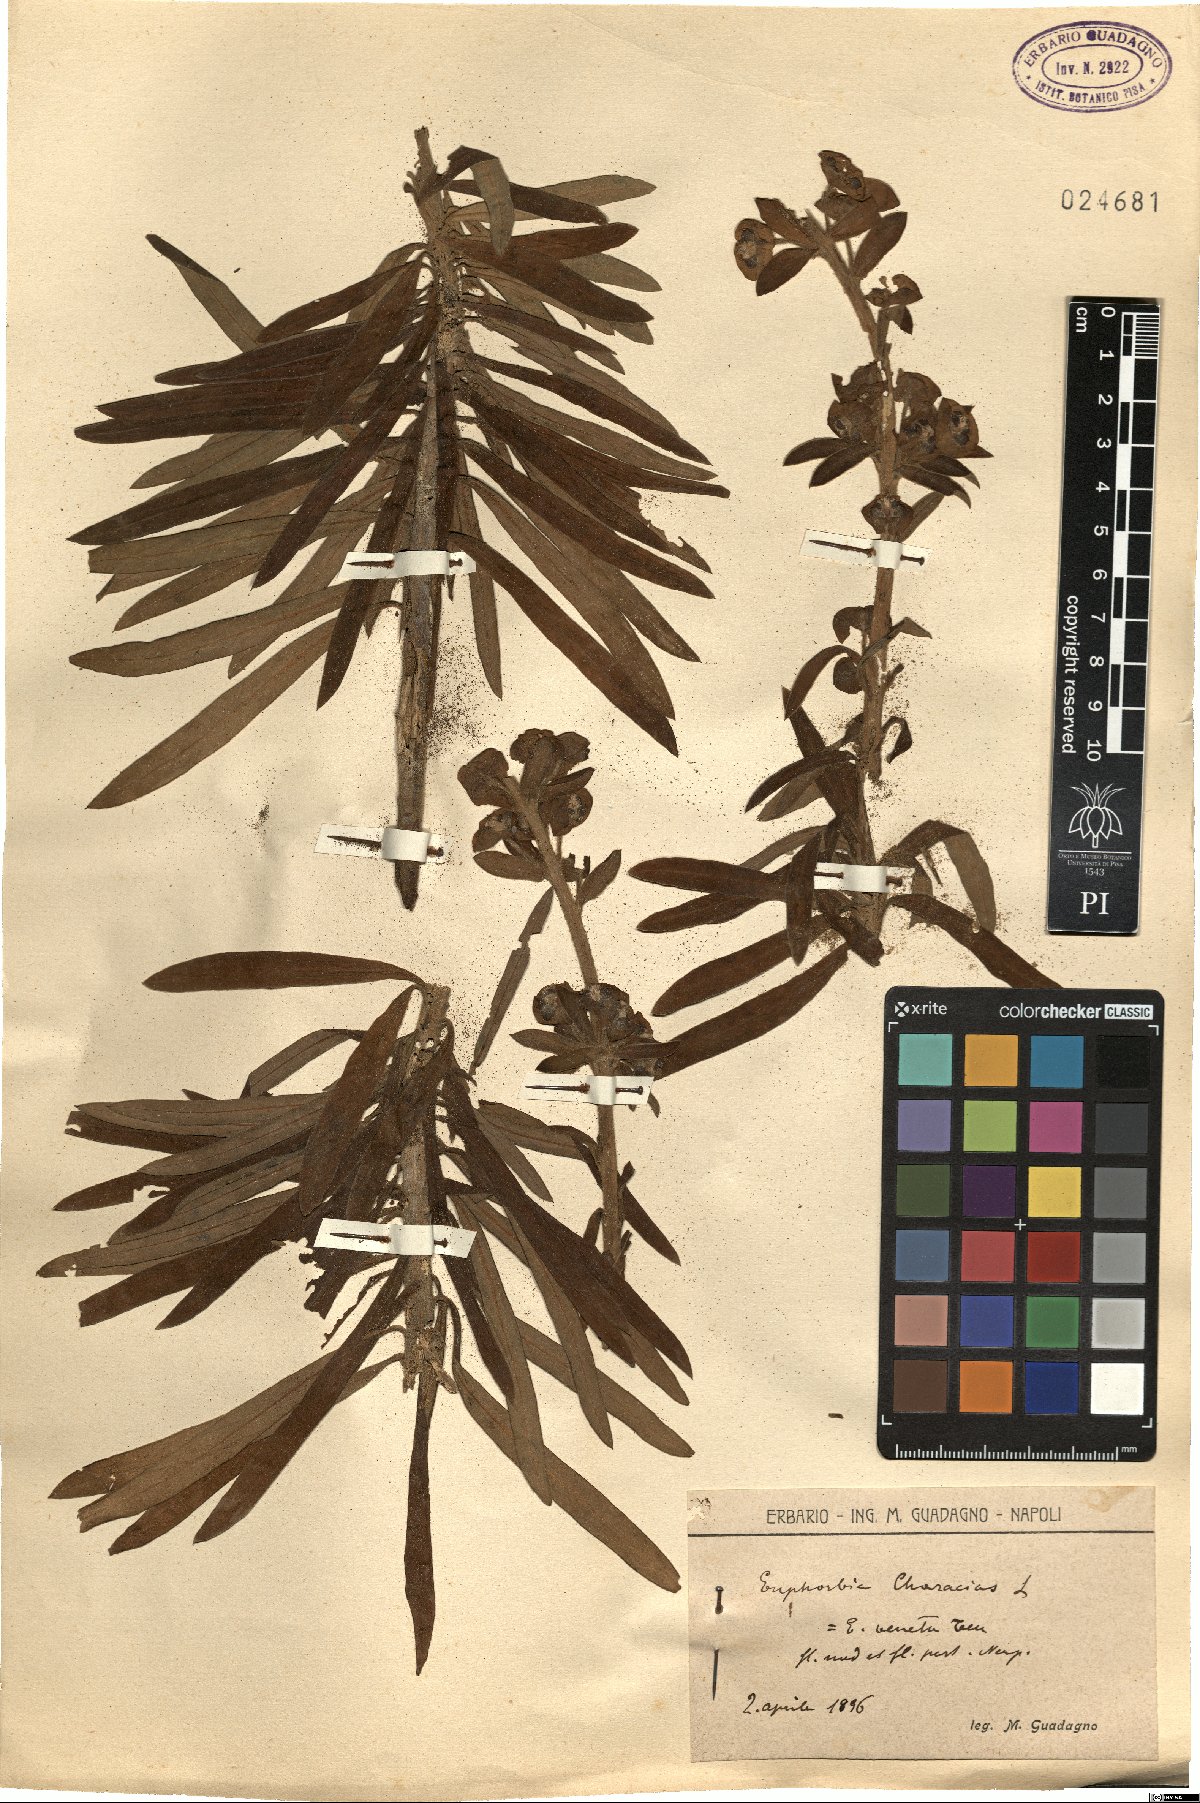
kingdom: Plantae
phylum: Tracheophyta
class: Magnoliopsida
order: Malpighiales
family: Euphorbiaceae
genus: Euphorbia
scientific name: Euphorbia characias
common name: Mediterranean spurge
